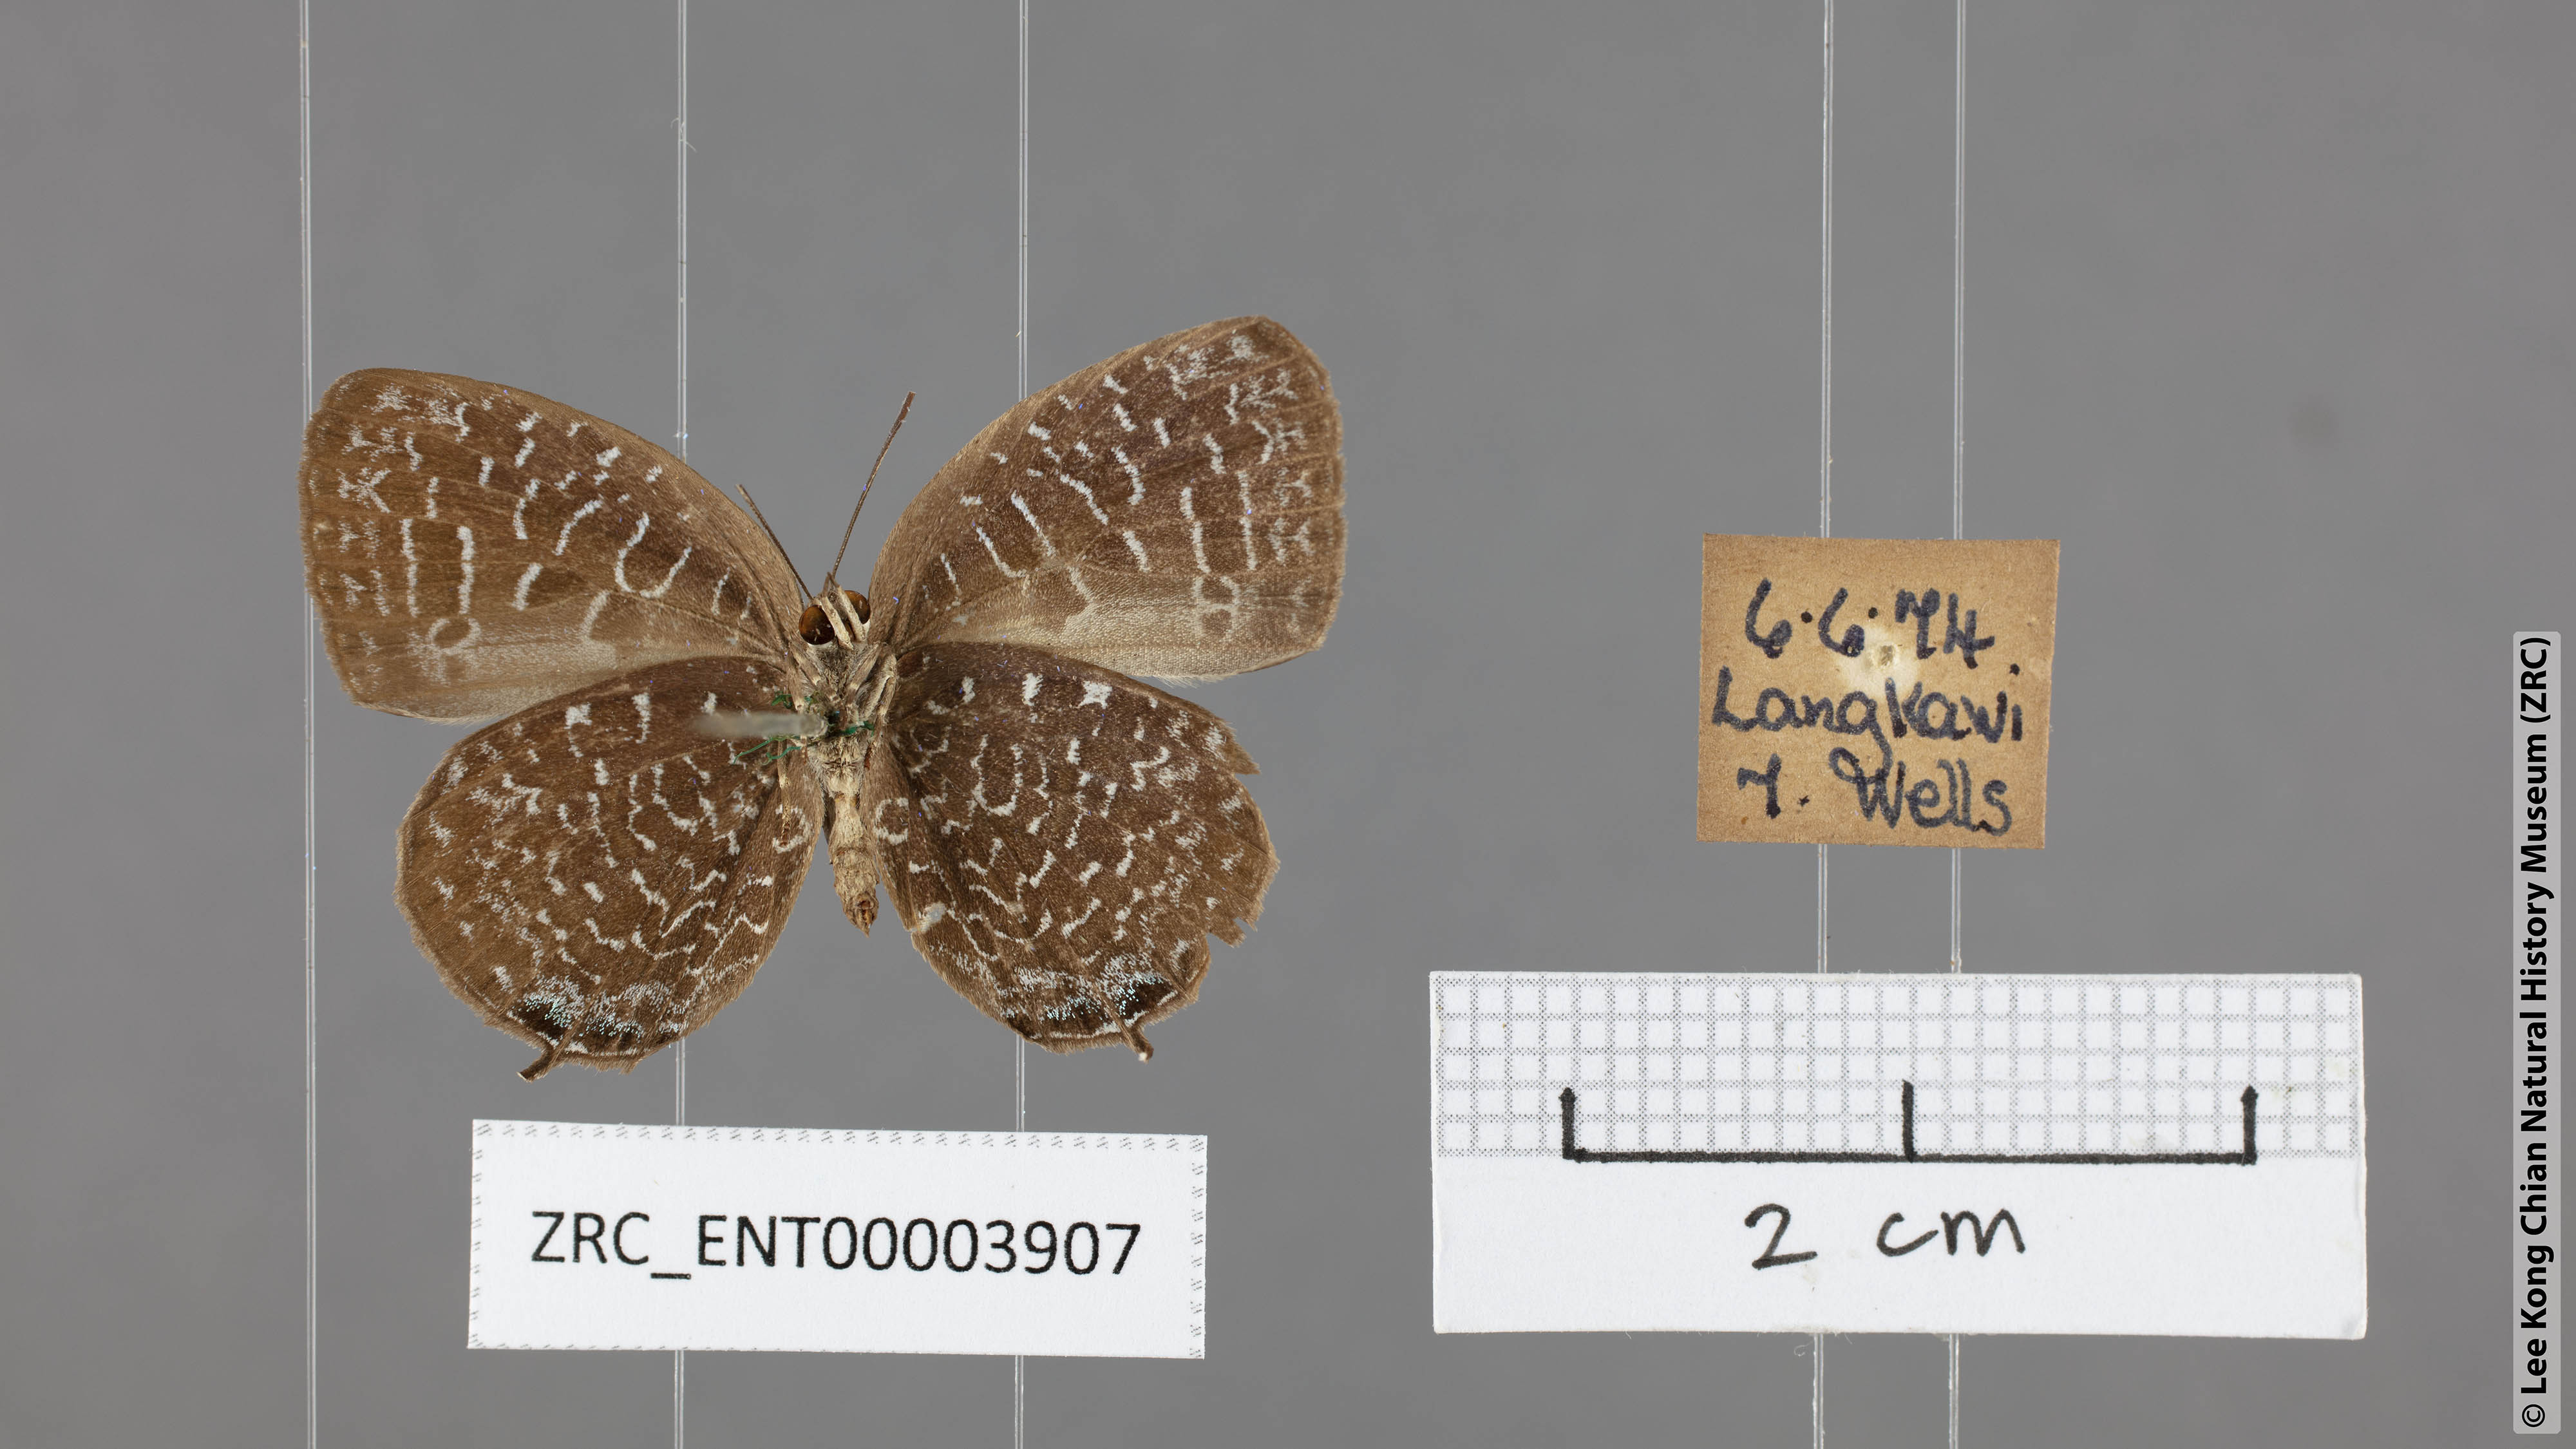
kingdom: Animalia
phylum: Arthropoda
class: Insecta
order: Lepidoptera
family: Lycaenidae
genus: Arhopala
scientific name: Arhopala democritus
